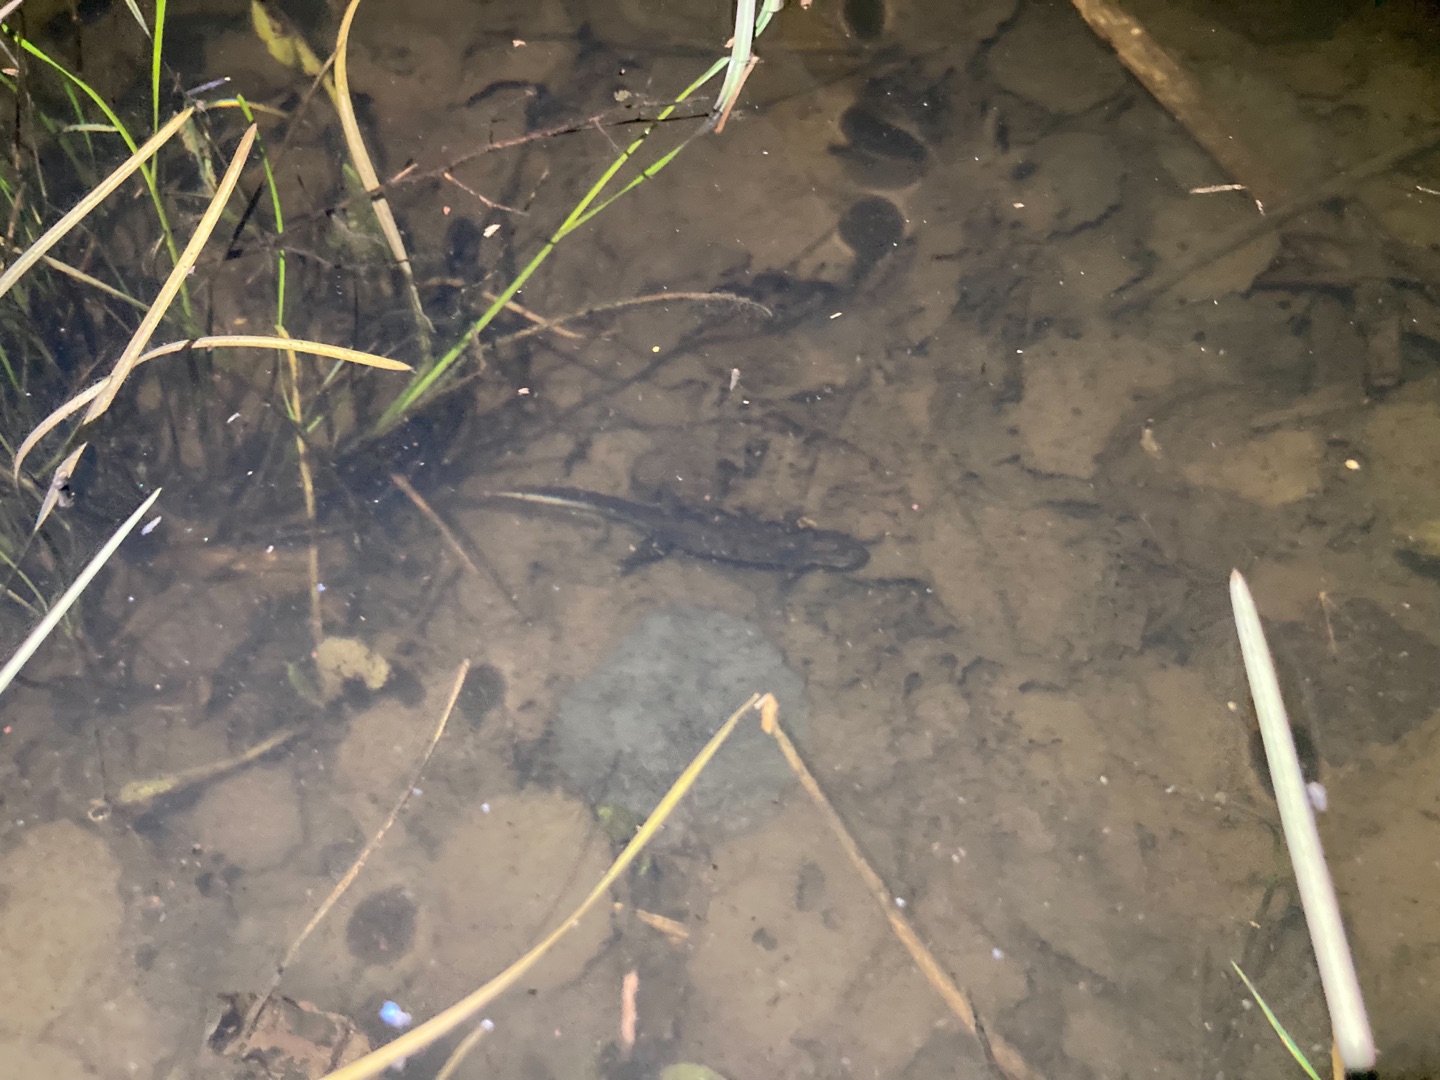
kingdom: Animalia
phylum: Chordata
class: Amphibia
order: Caudata
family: Salamandridae
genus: Triturus
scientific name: Triturus cristatus
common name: Stor vandsalamander
